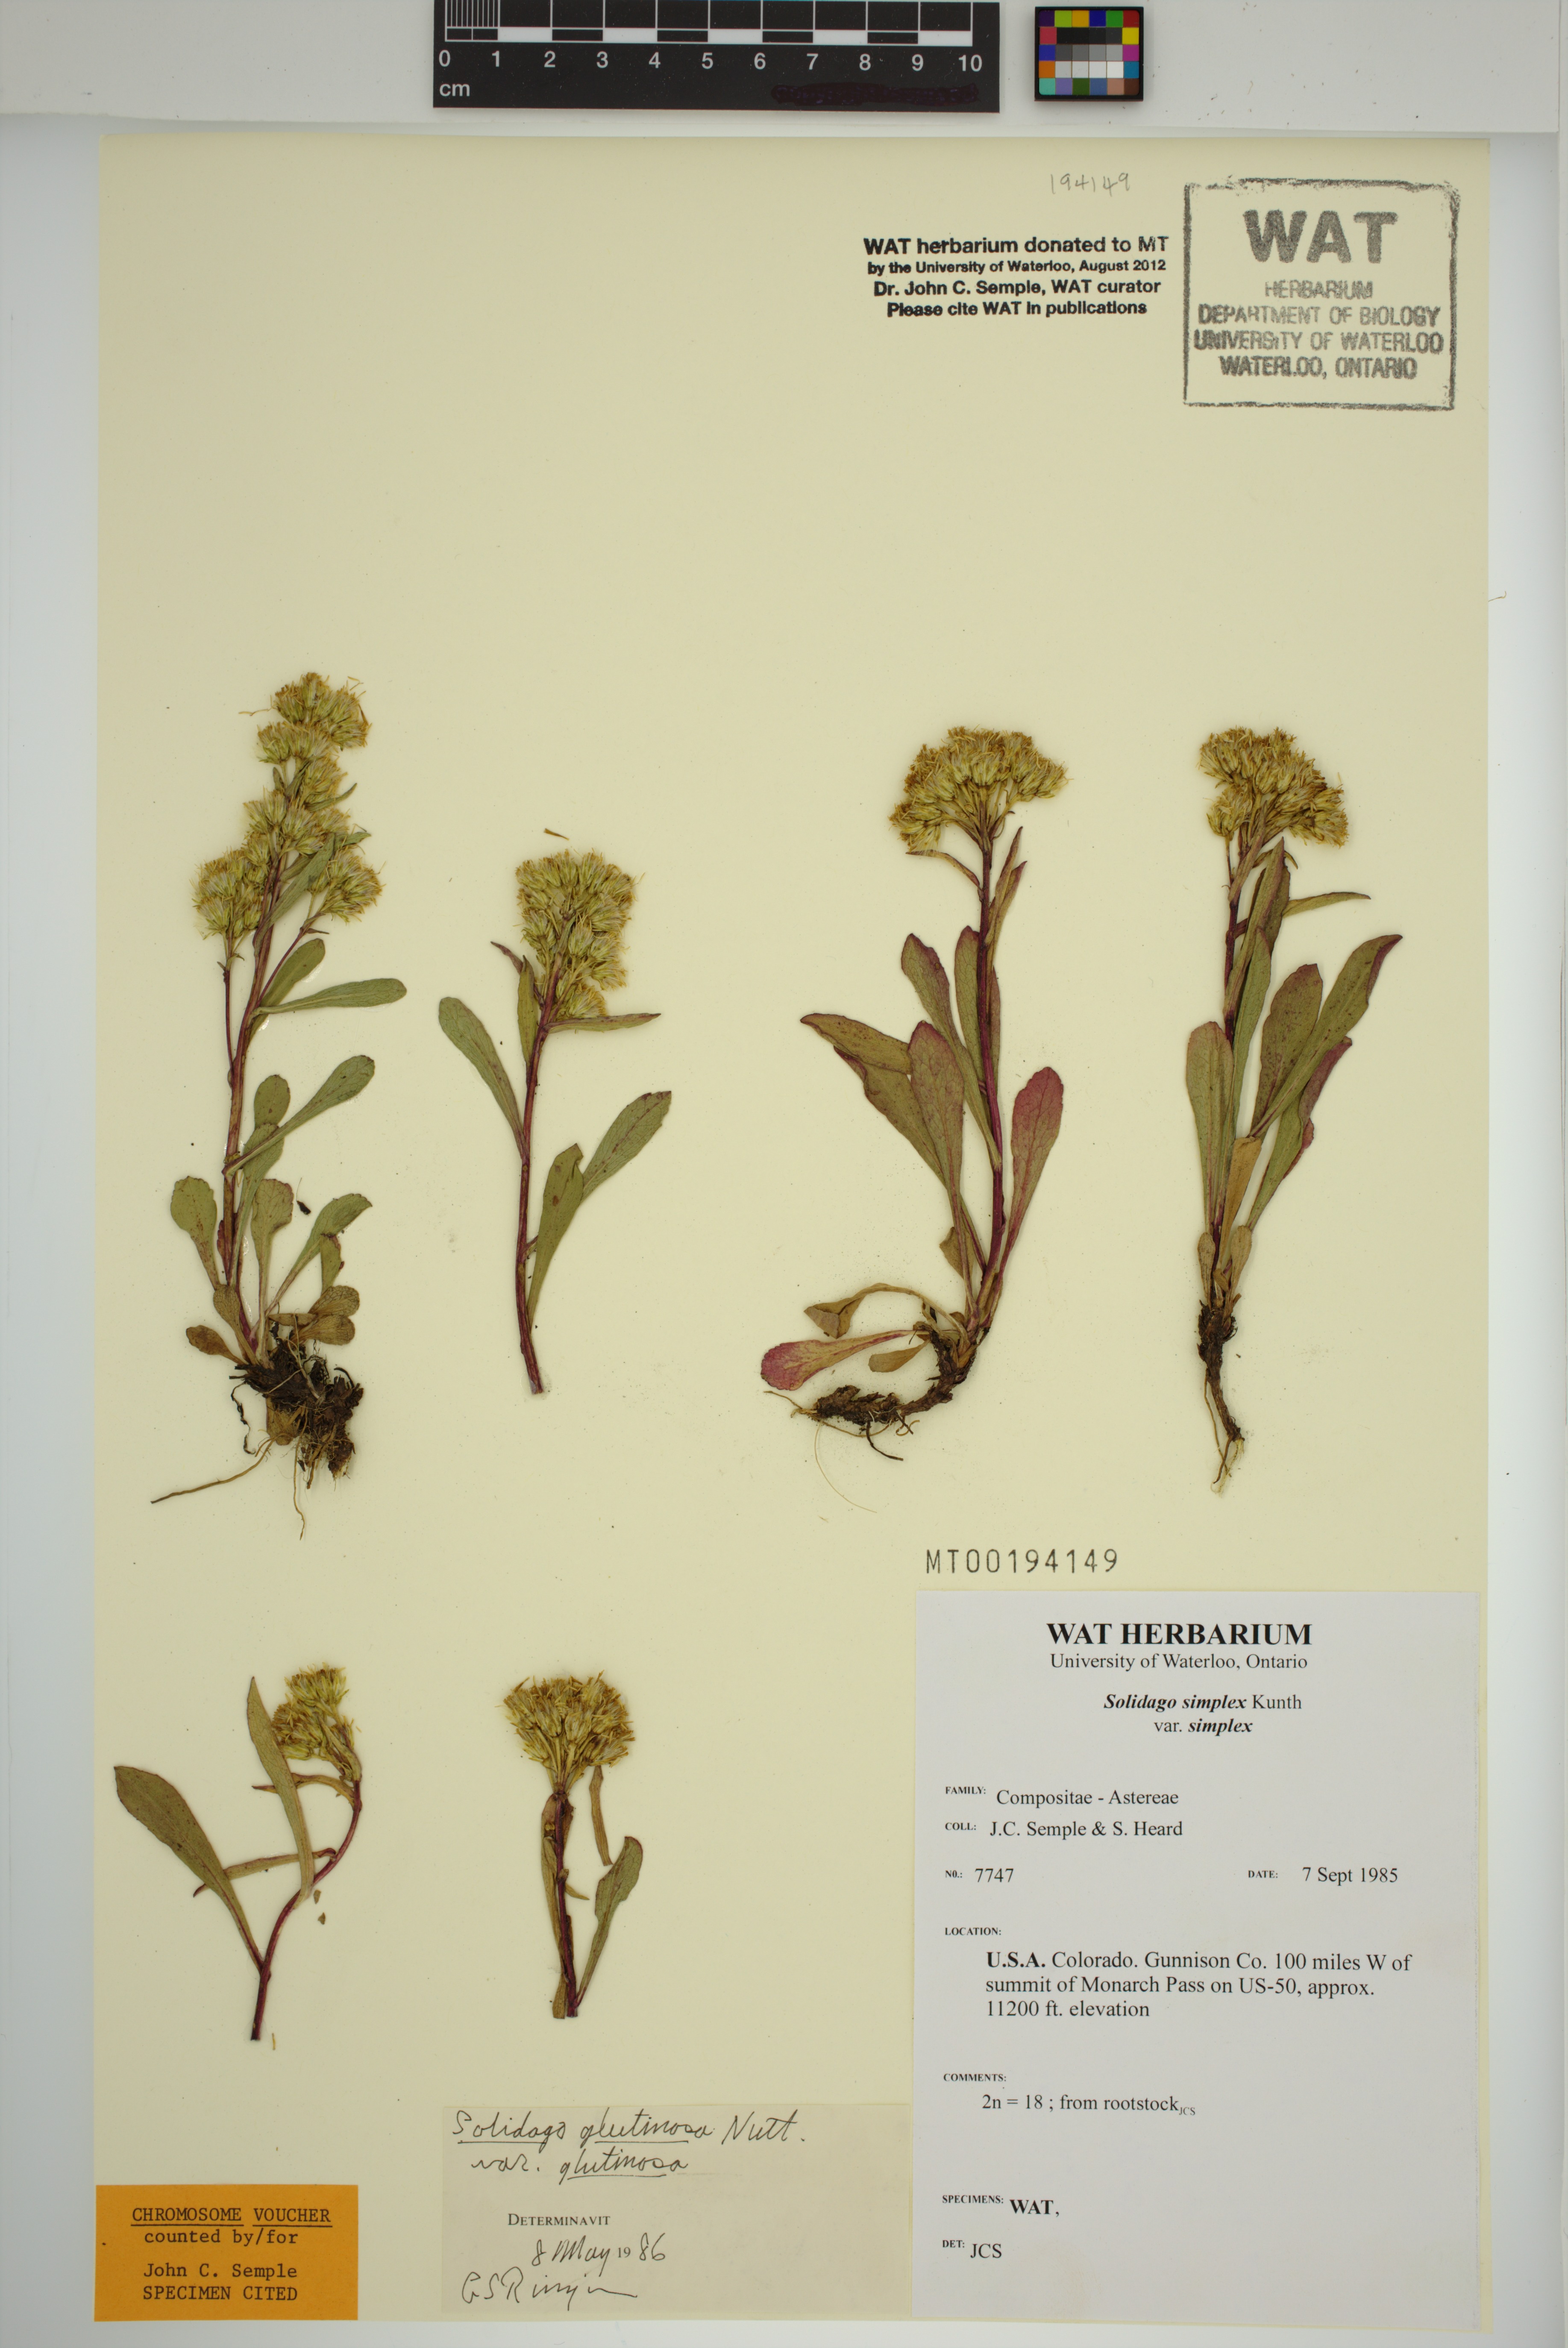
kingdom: Plantae
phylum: Tracheophyta
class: Magnoliopsida
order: Asterales
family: Asteraceae
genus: Solidago
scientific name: Solidago glutinosa
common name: Decumbent goldenrod
